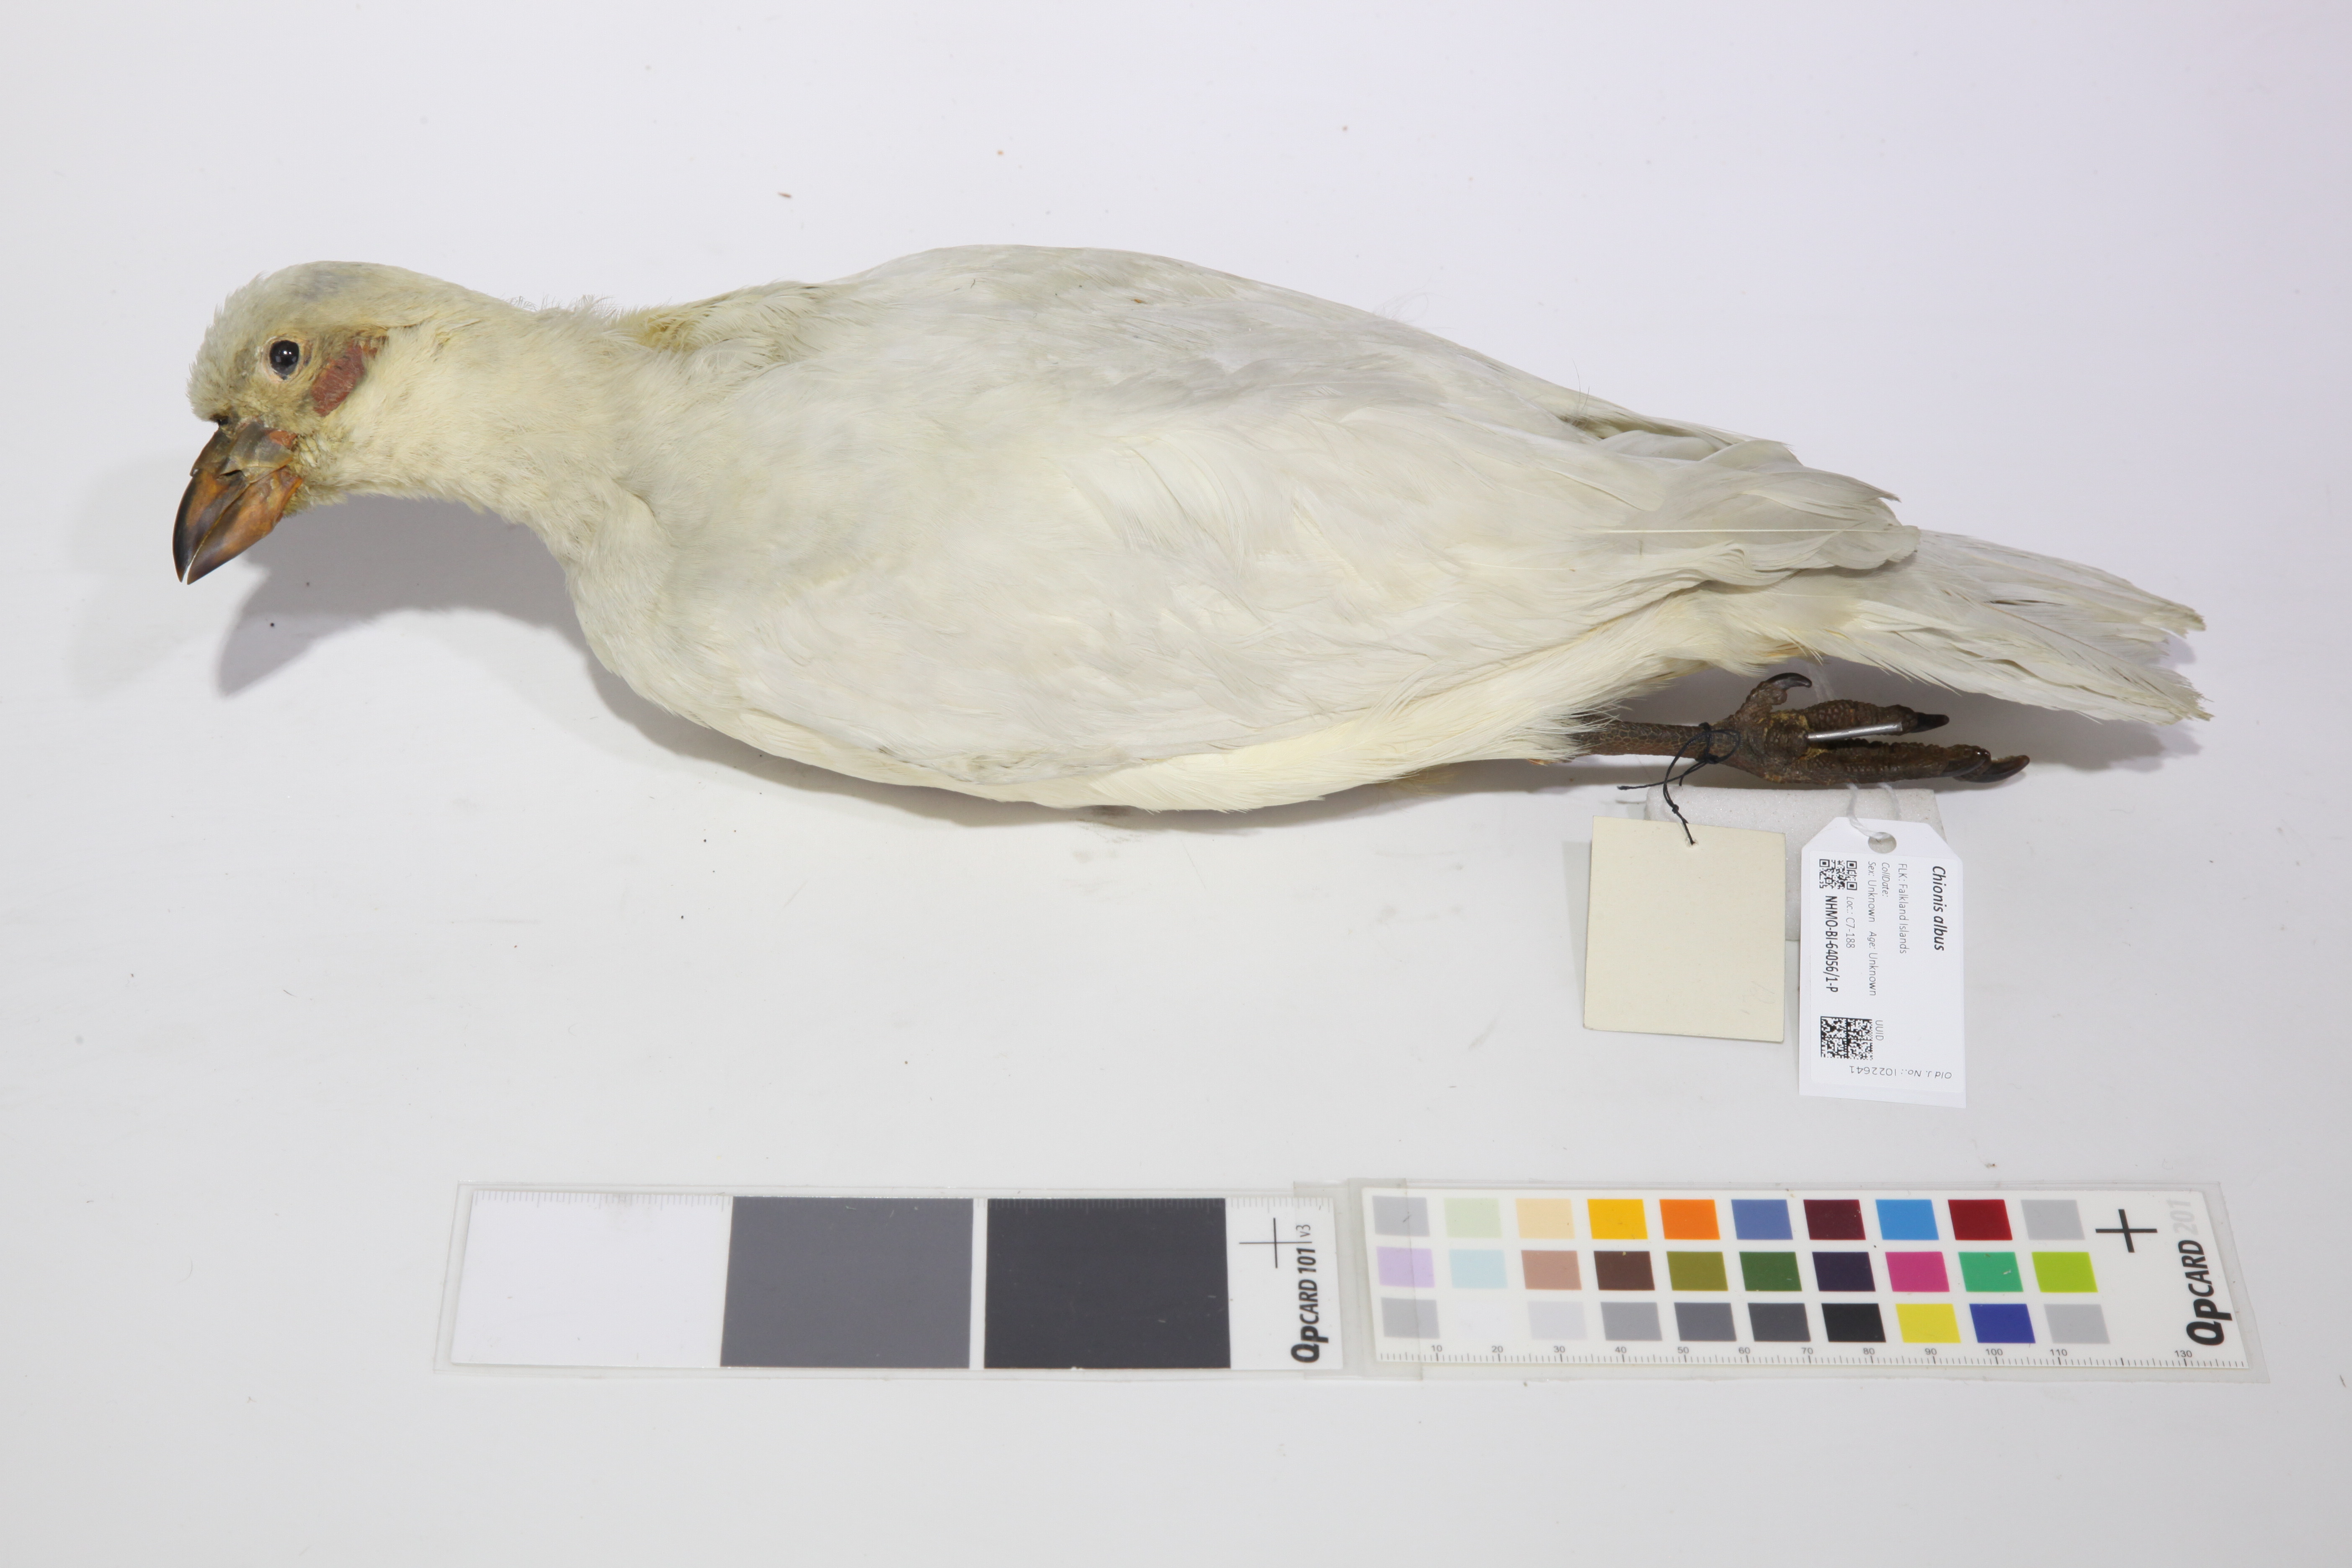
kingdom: Animalia
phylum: Chordata
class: Aves
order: Charadriiformes
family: Chionidae
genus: Chionis
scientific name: Chionis albus
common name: Snowy sheathbill
